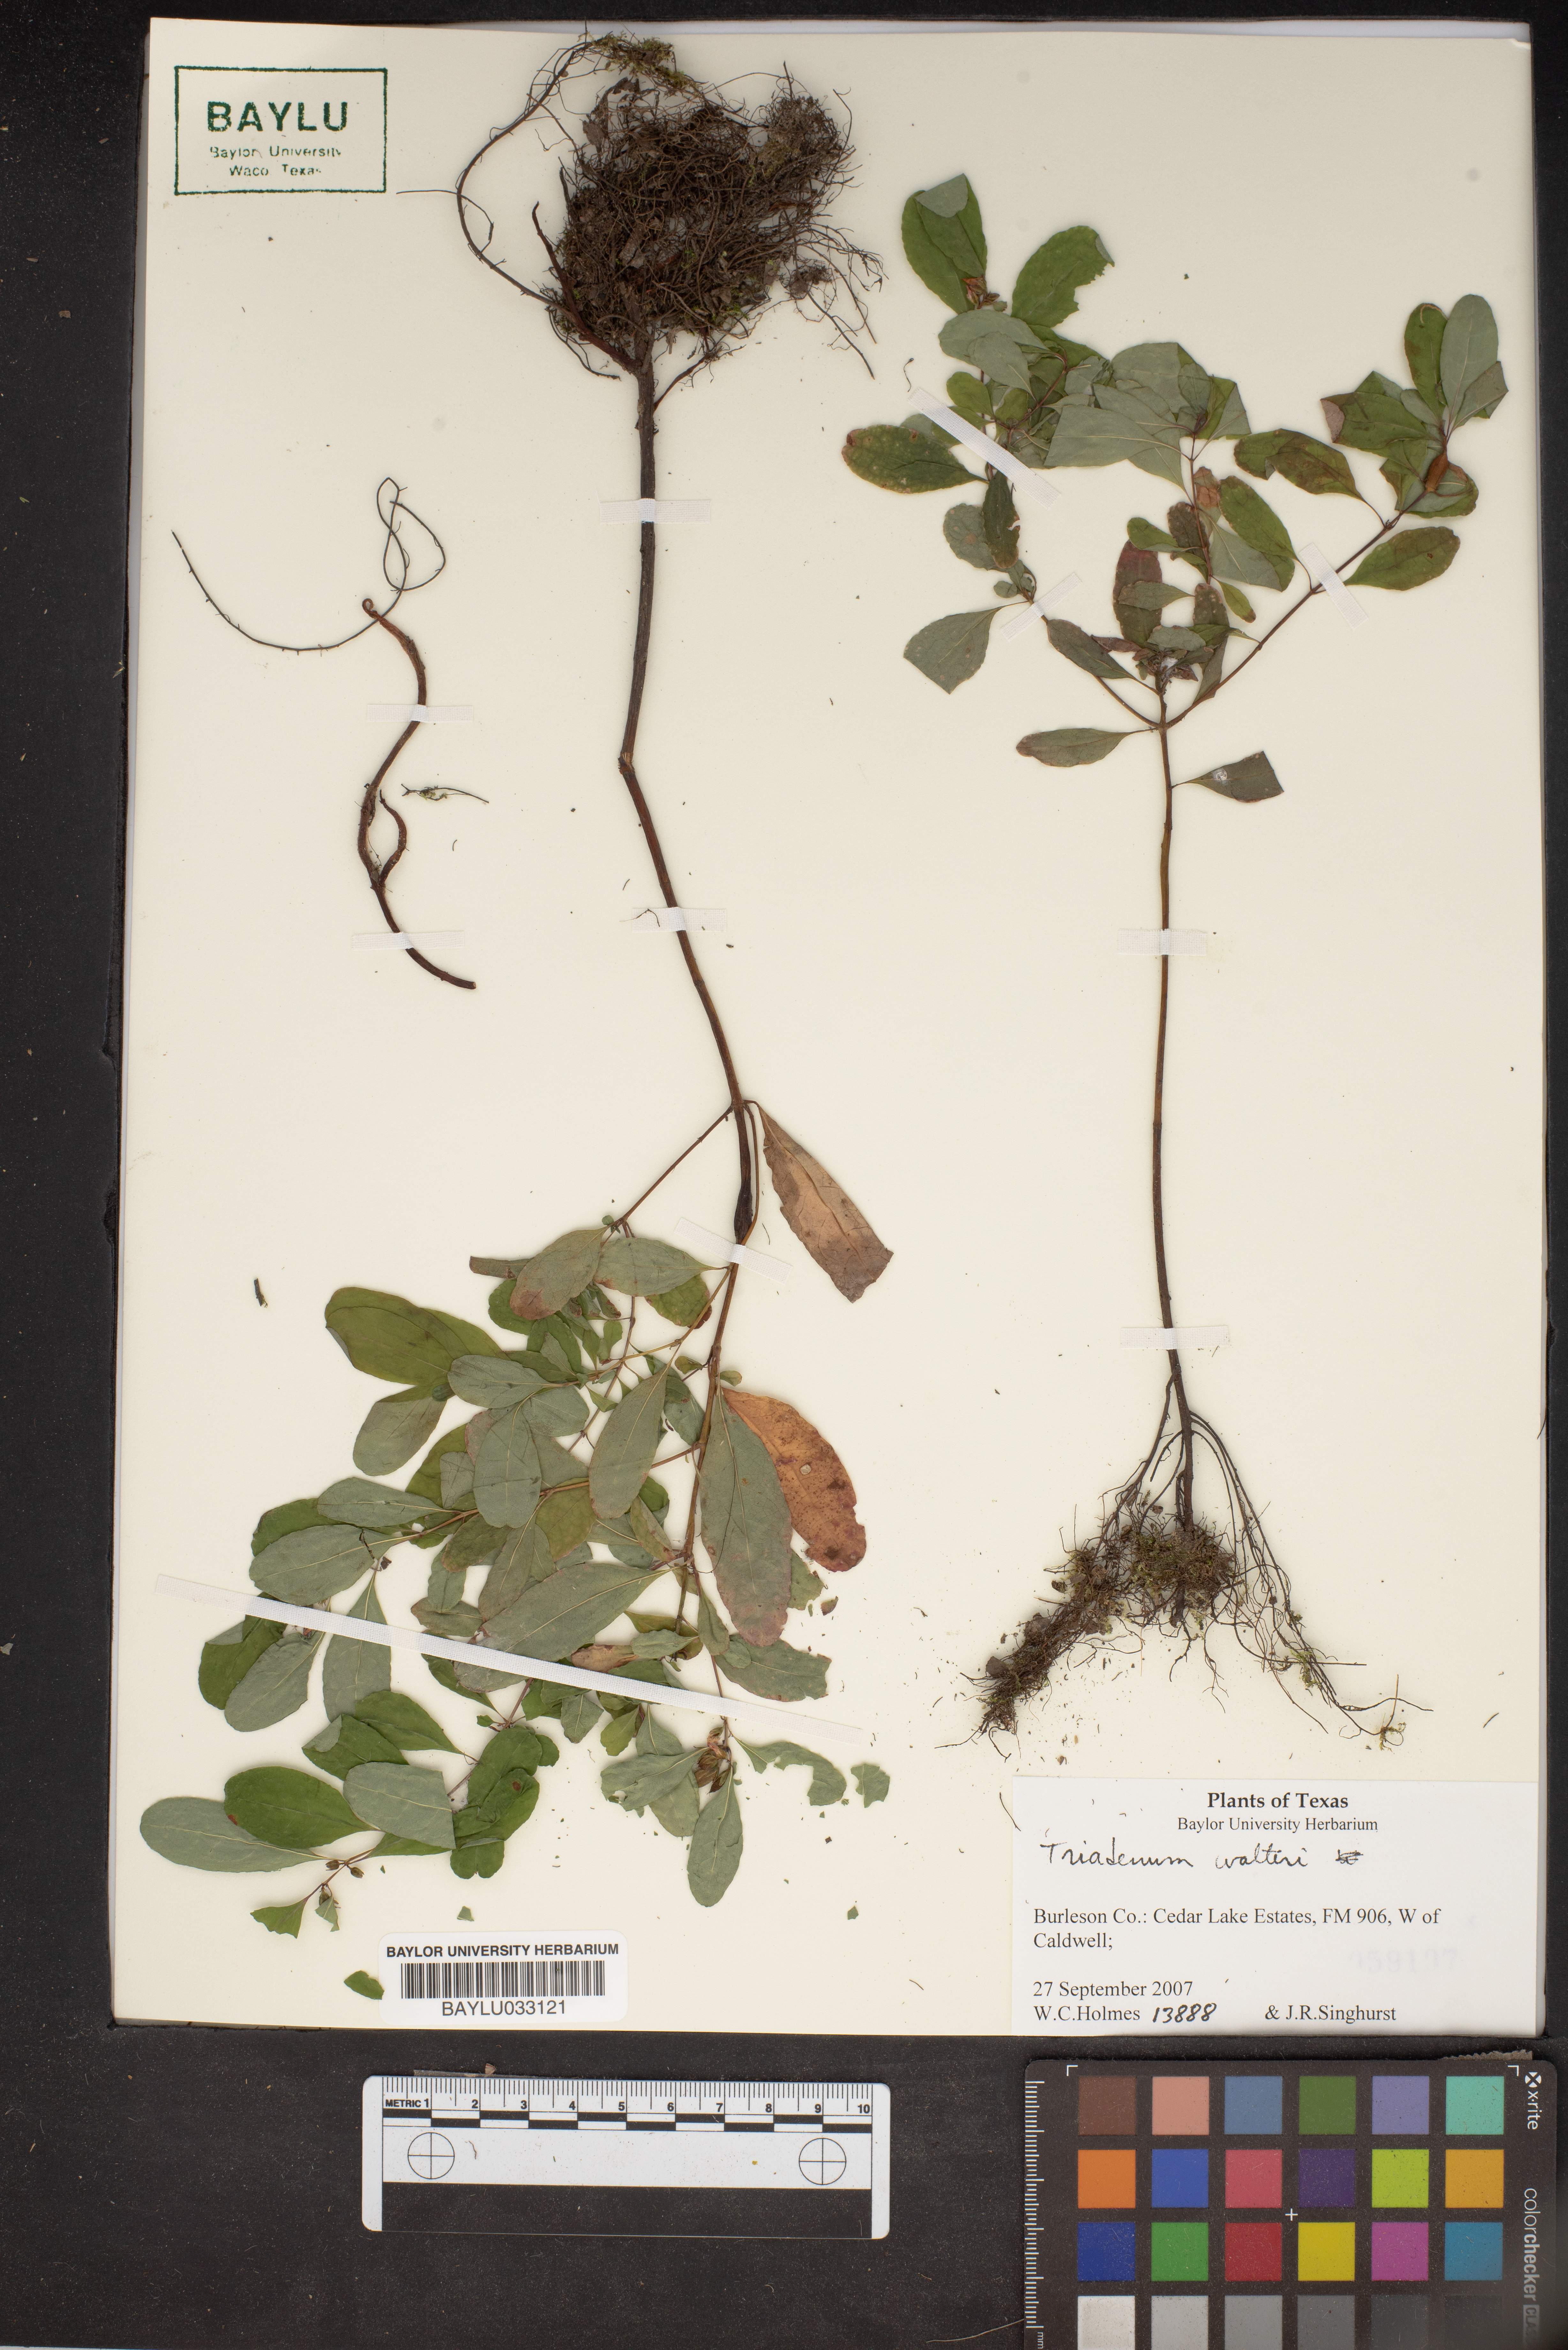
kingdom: Plantae
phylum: Tracheophyta
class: Magnoliopsida
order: Malpighiales
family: Hypericaceae
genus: Triadenum
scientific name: Triadenum walteri
